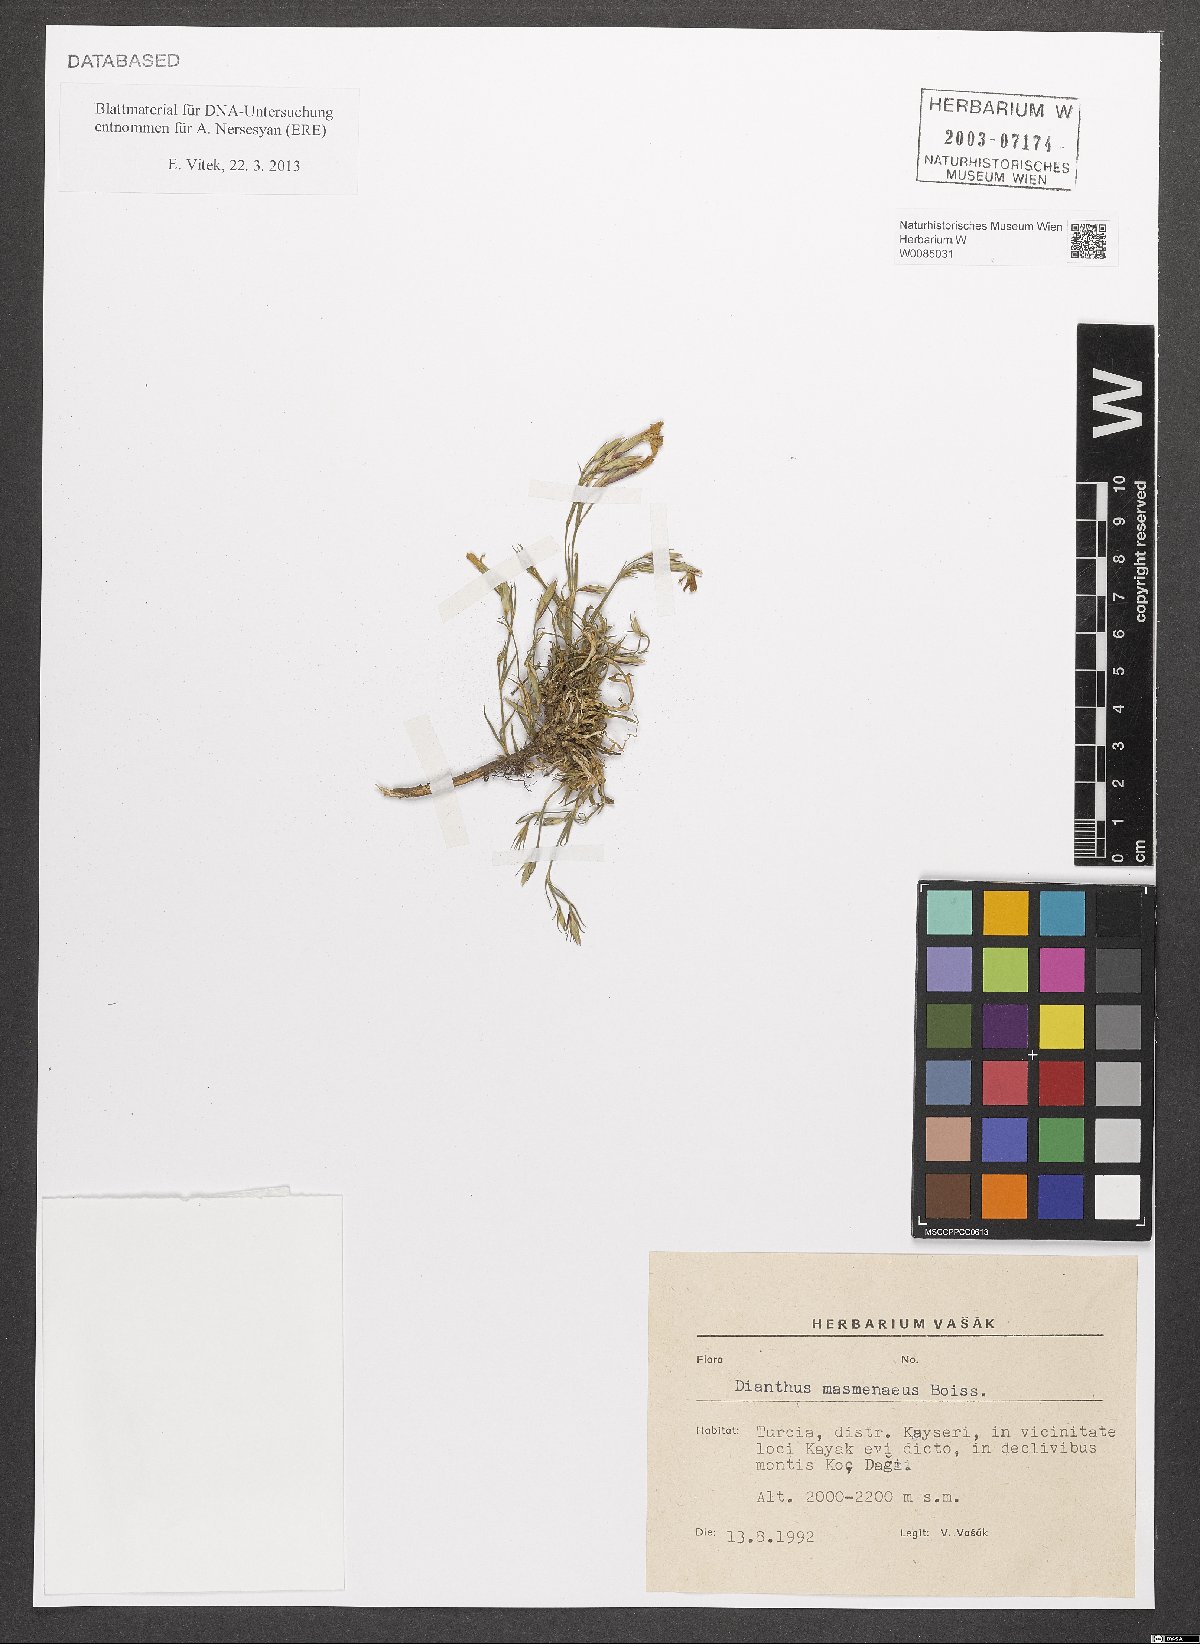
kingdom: Plantae
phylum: Tracheophyta
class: Magnoliopsida
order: Caryophyllales
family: Caryophyllaceae
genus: Dianthus
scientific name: Dianthus masmenaeus
